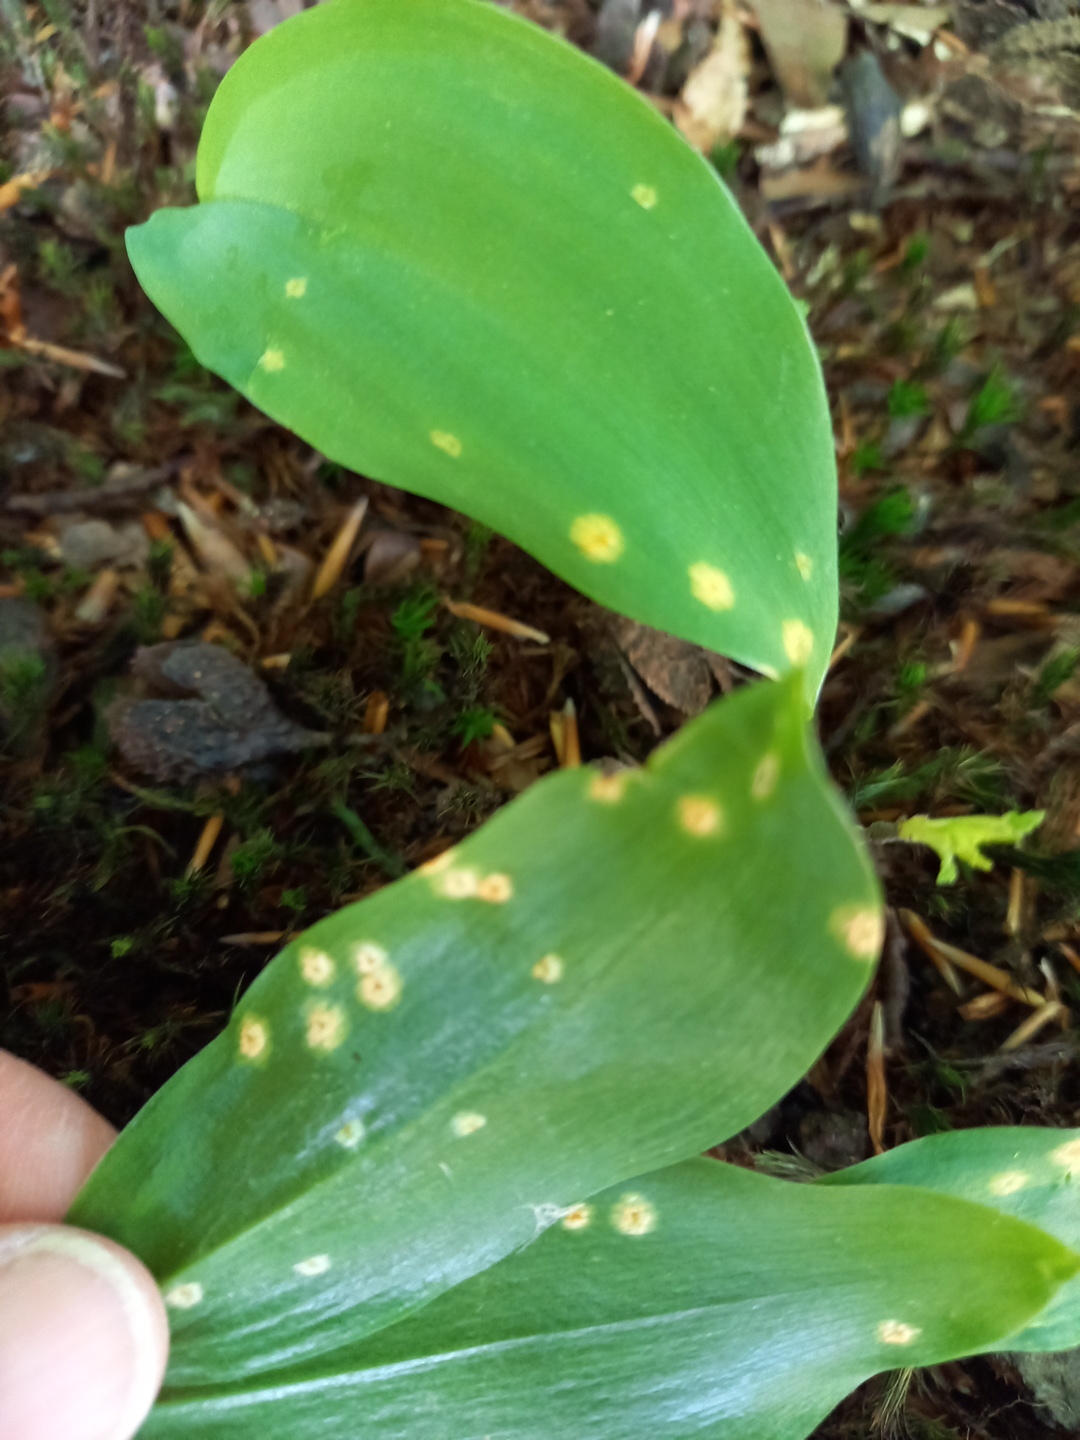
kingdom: Fungi
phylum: Basidiomycota
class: Pucciniomycetes
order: Pucciniales
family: Pucciniaceae
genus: Puccinia
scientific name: Puccinia sessilis
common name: Arum rust
